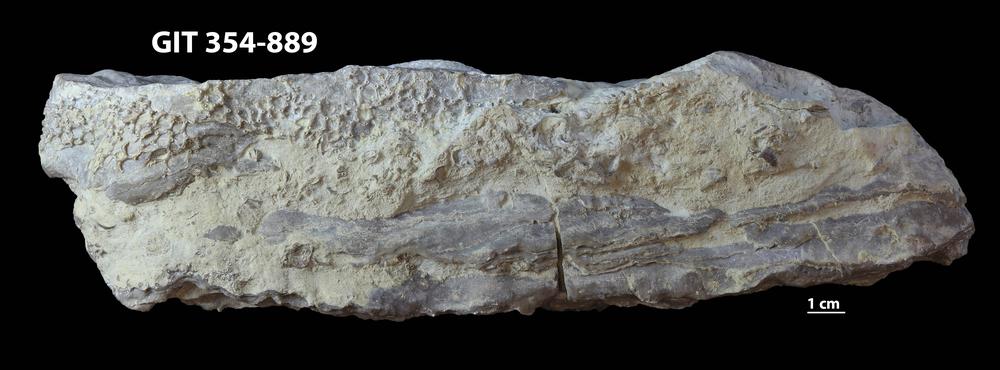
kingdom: Animalia
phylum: Porifera
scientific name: Porifera
